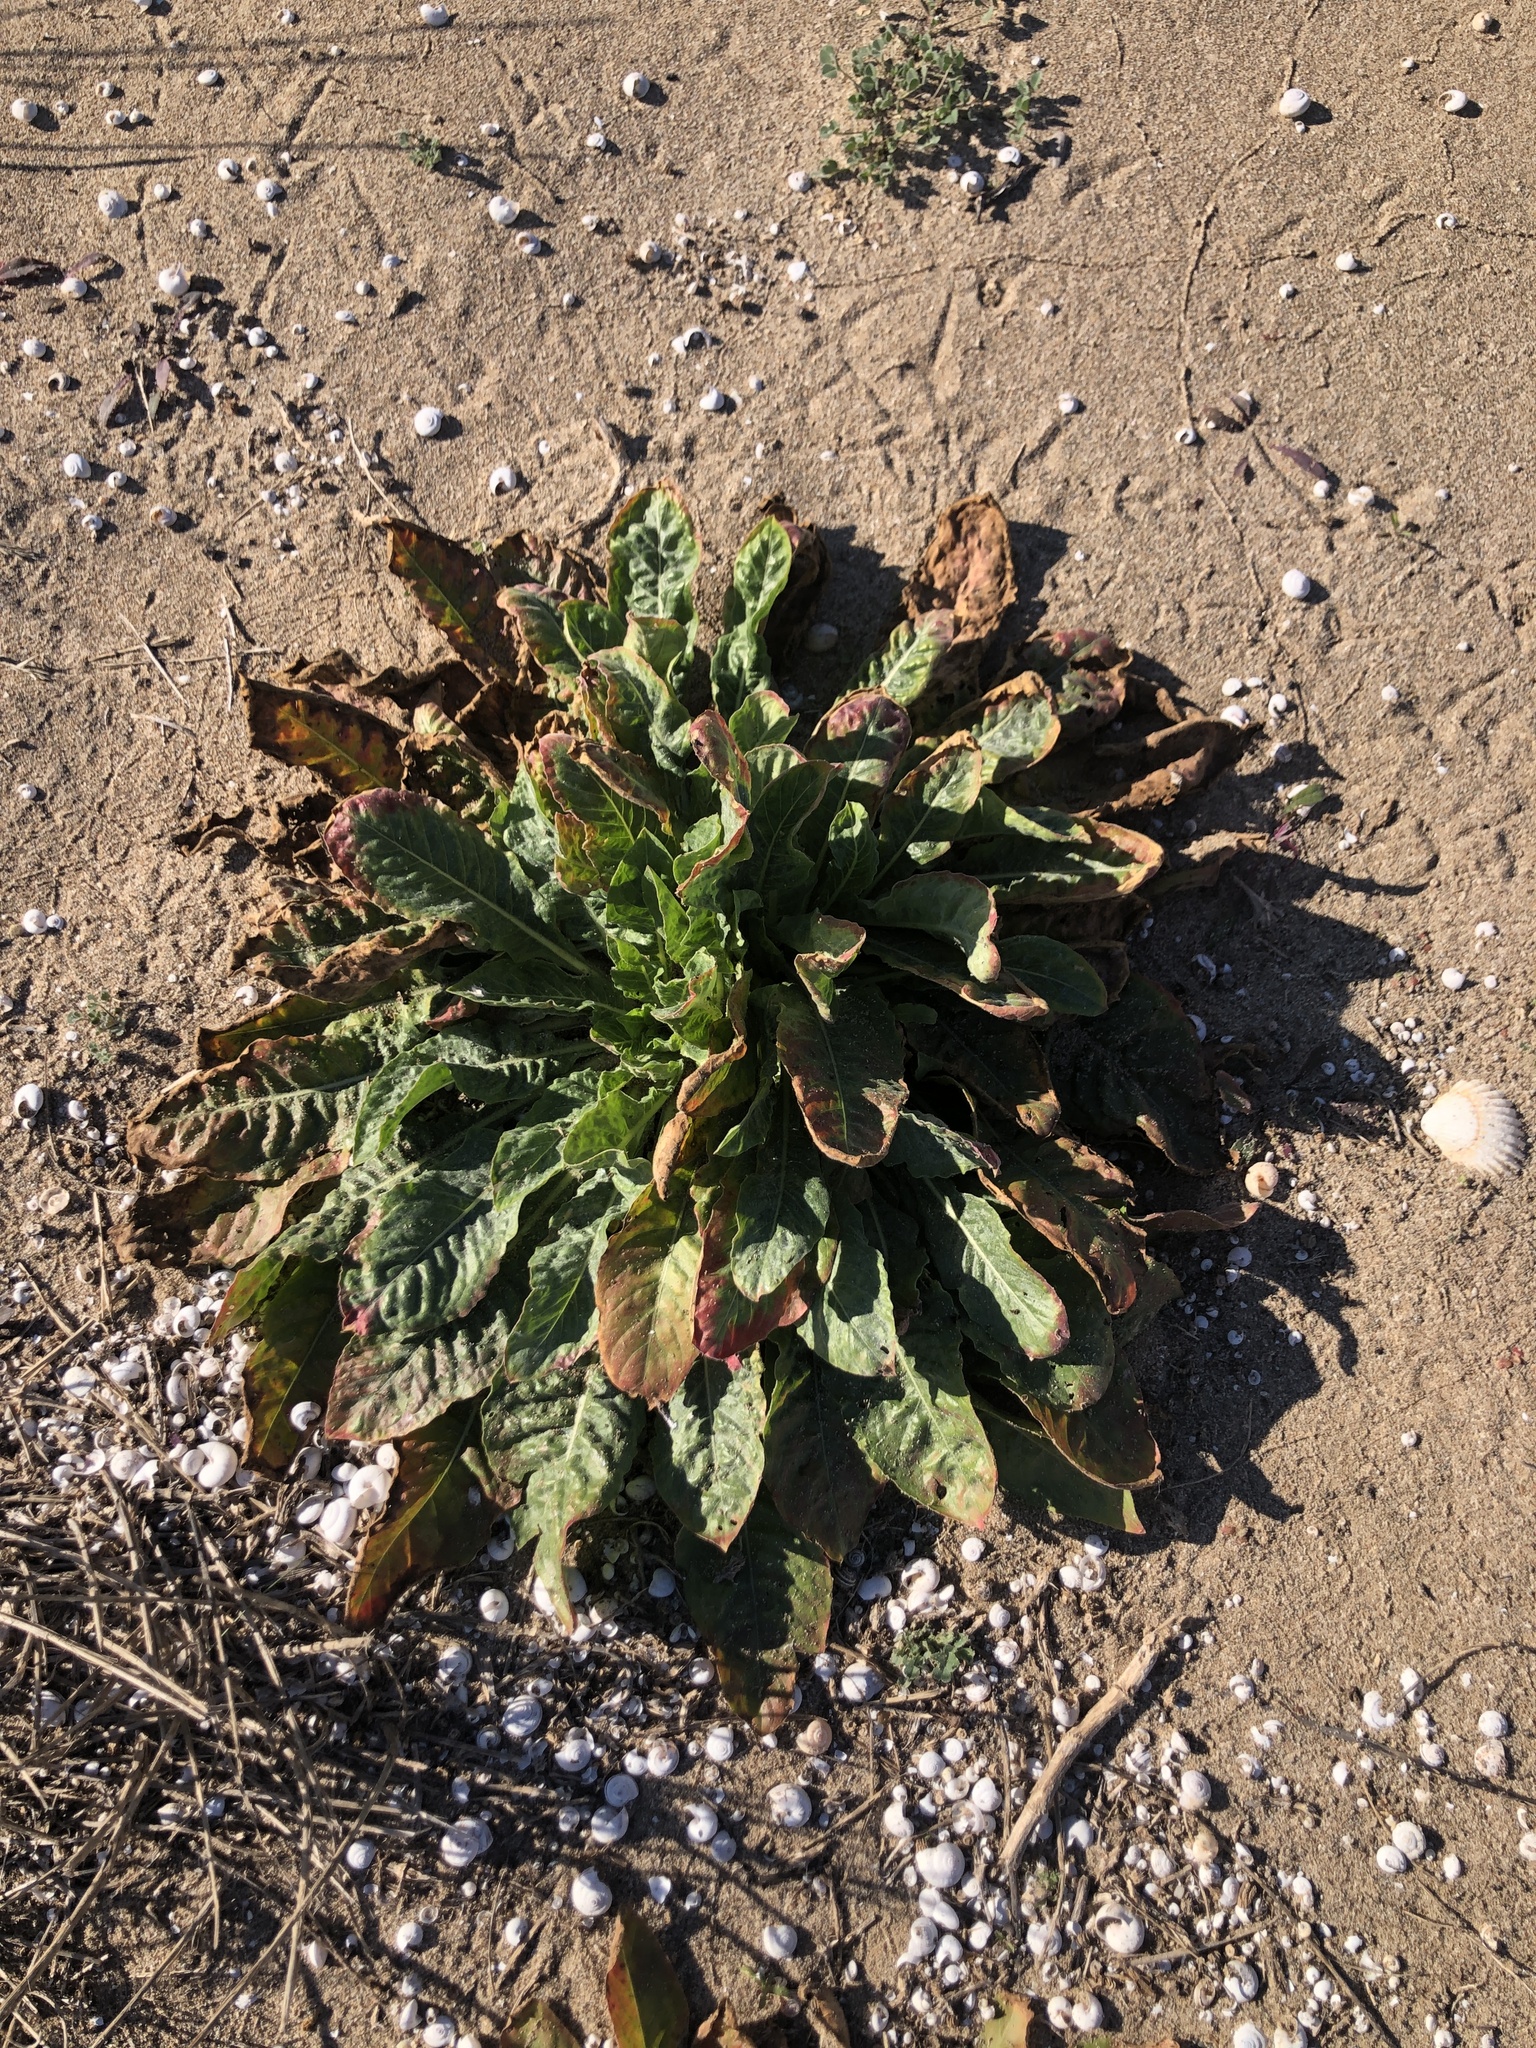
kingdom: Plantae
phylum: Tracheophyta
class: Magnoliopsida
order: Myrtales
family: Onagraceae
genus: Oenothera
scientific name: Oenothera glazioviana
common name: Large-flowered evening-primrose
